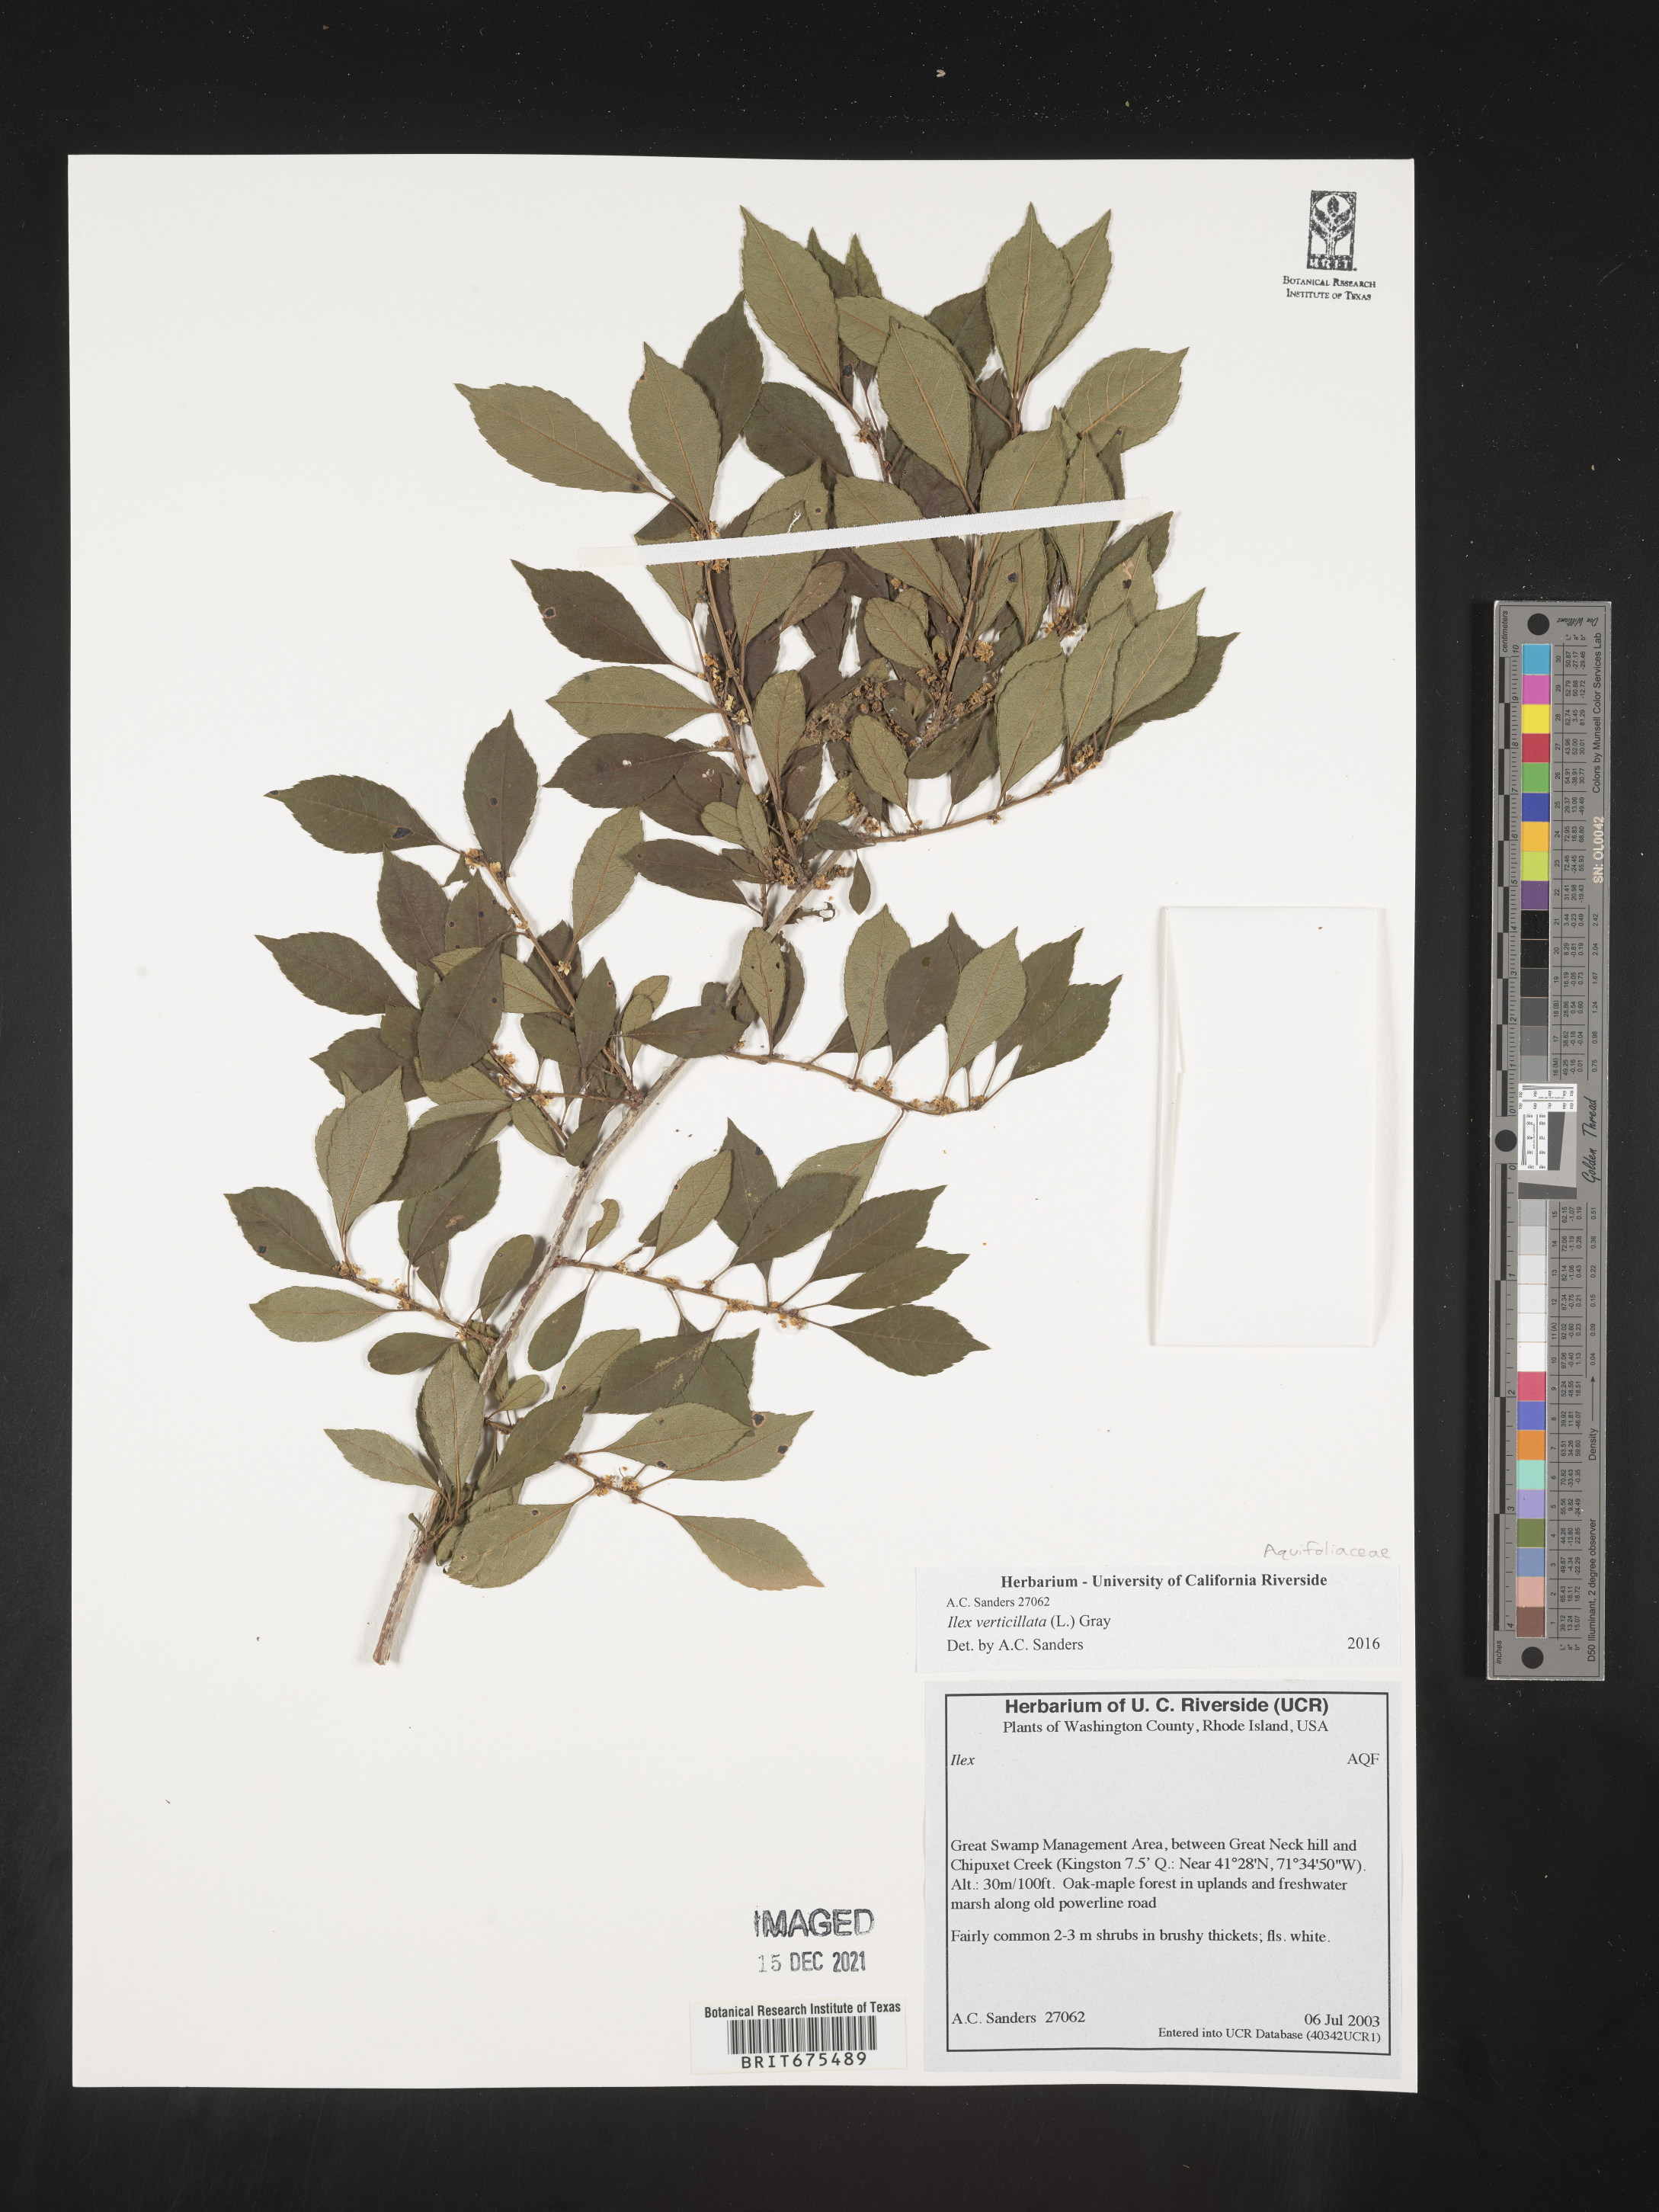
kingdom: Plantae
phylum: Tracheophyta
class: Magnoliopsida
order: Aquifoliales
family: Aquifoliaceae
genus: Ilex
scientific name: Ilex verticillata
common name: Virginia winterberry
